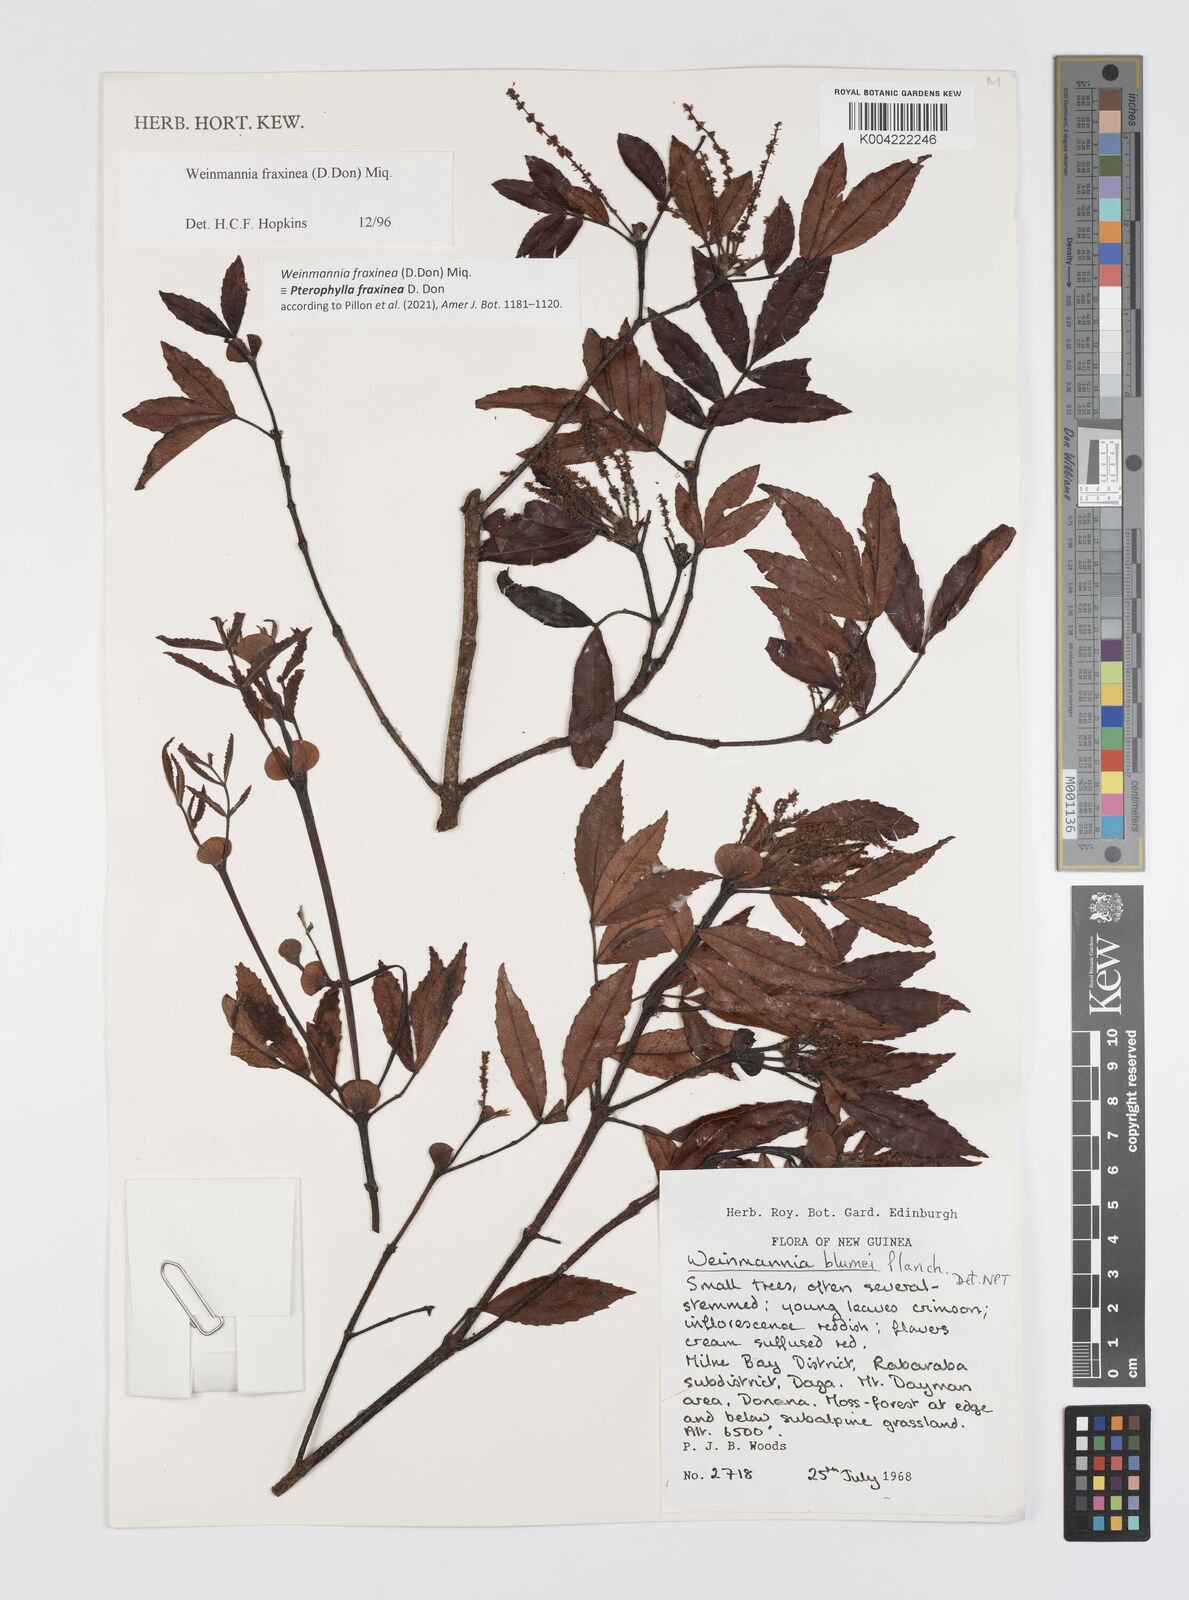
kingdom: Plantae
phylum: Tracheophyta
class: Magnoliopsida
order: Oxalidales
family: Cunoniaceae
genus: Pterophylla
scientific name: Pterophylla fraxinea
